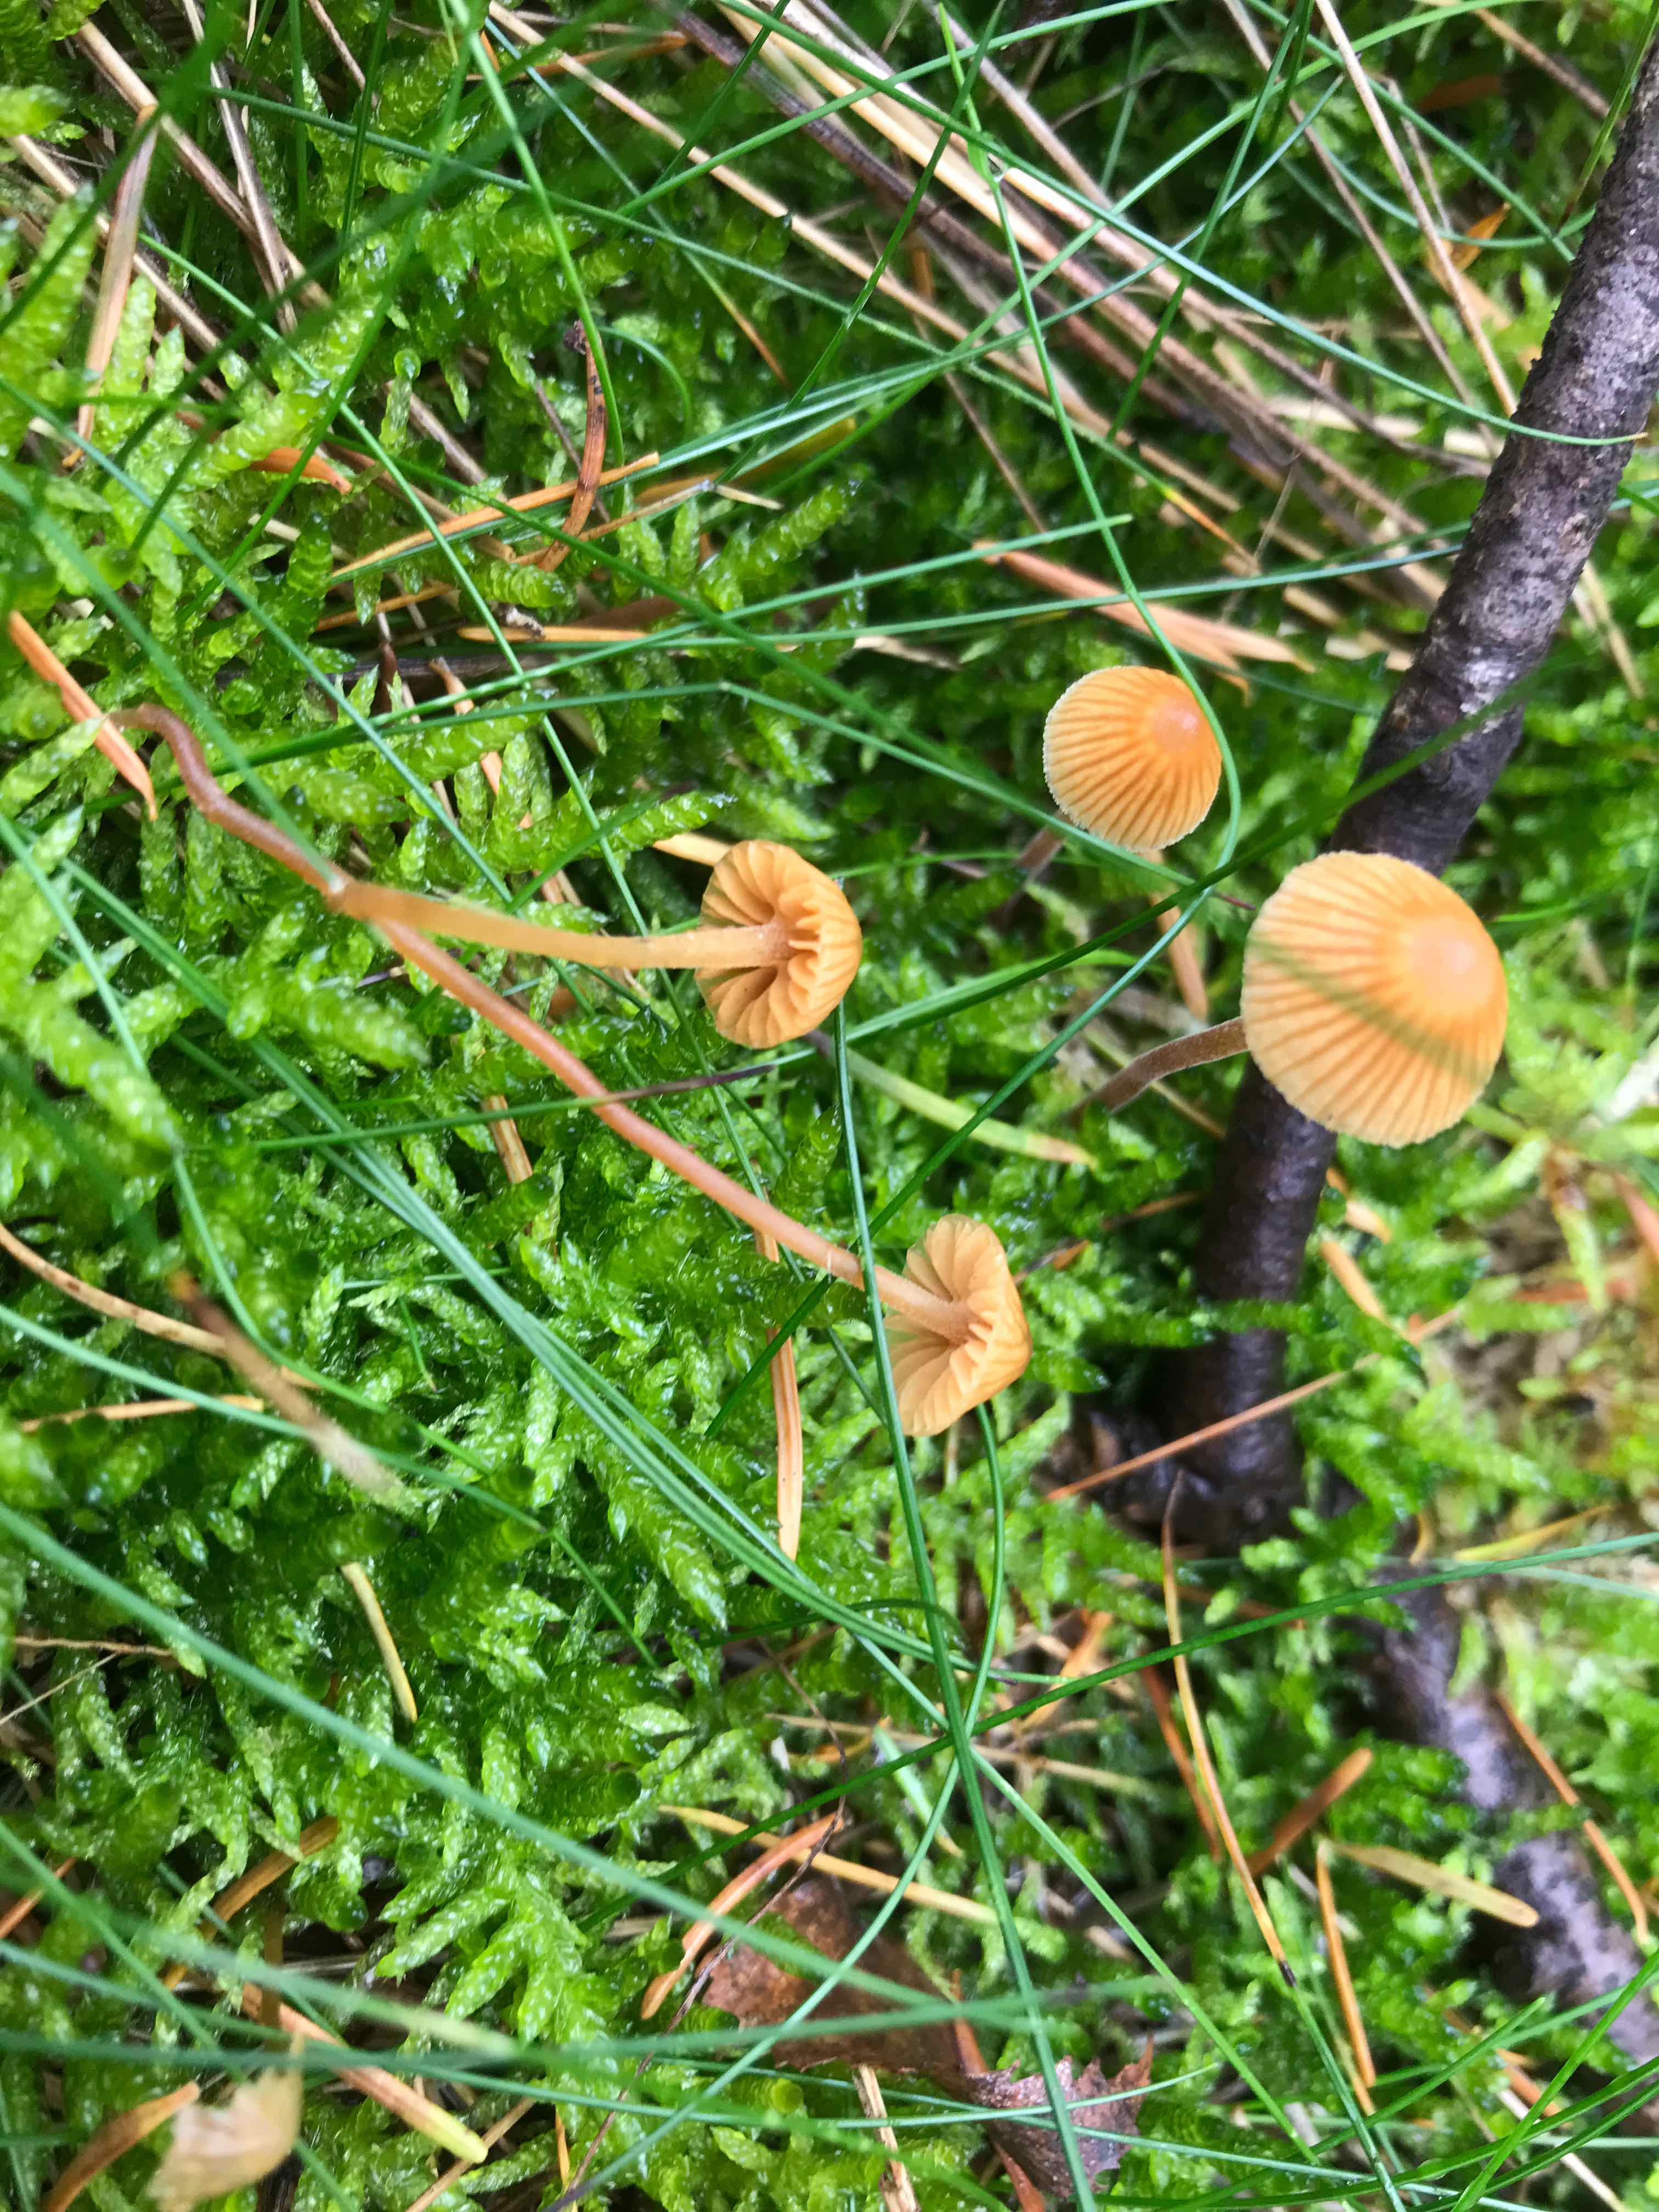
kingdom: Fungi
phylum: Basidiomycota
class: Agaricomycetes
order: Agaricales
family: Hymenogastraceae
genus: Galerina
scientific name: Galerina
